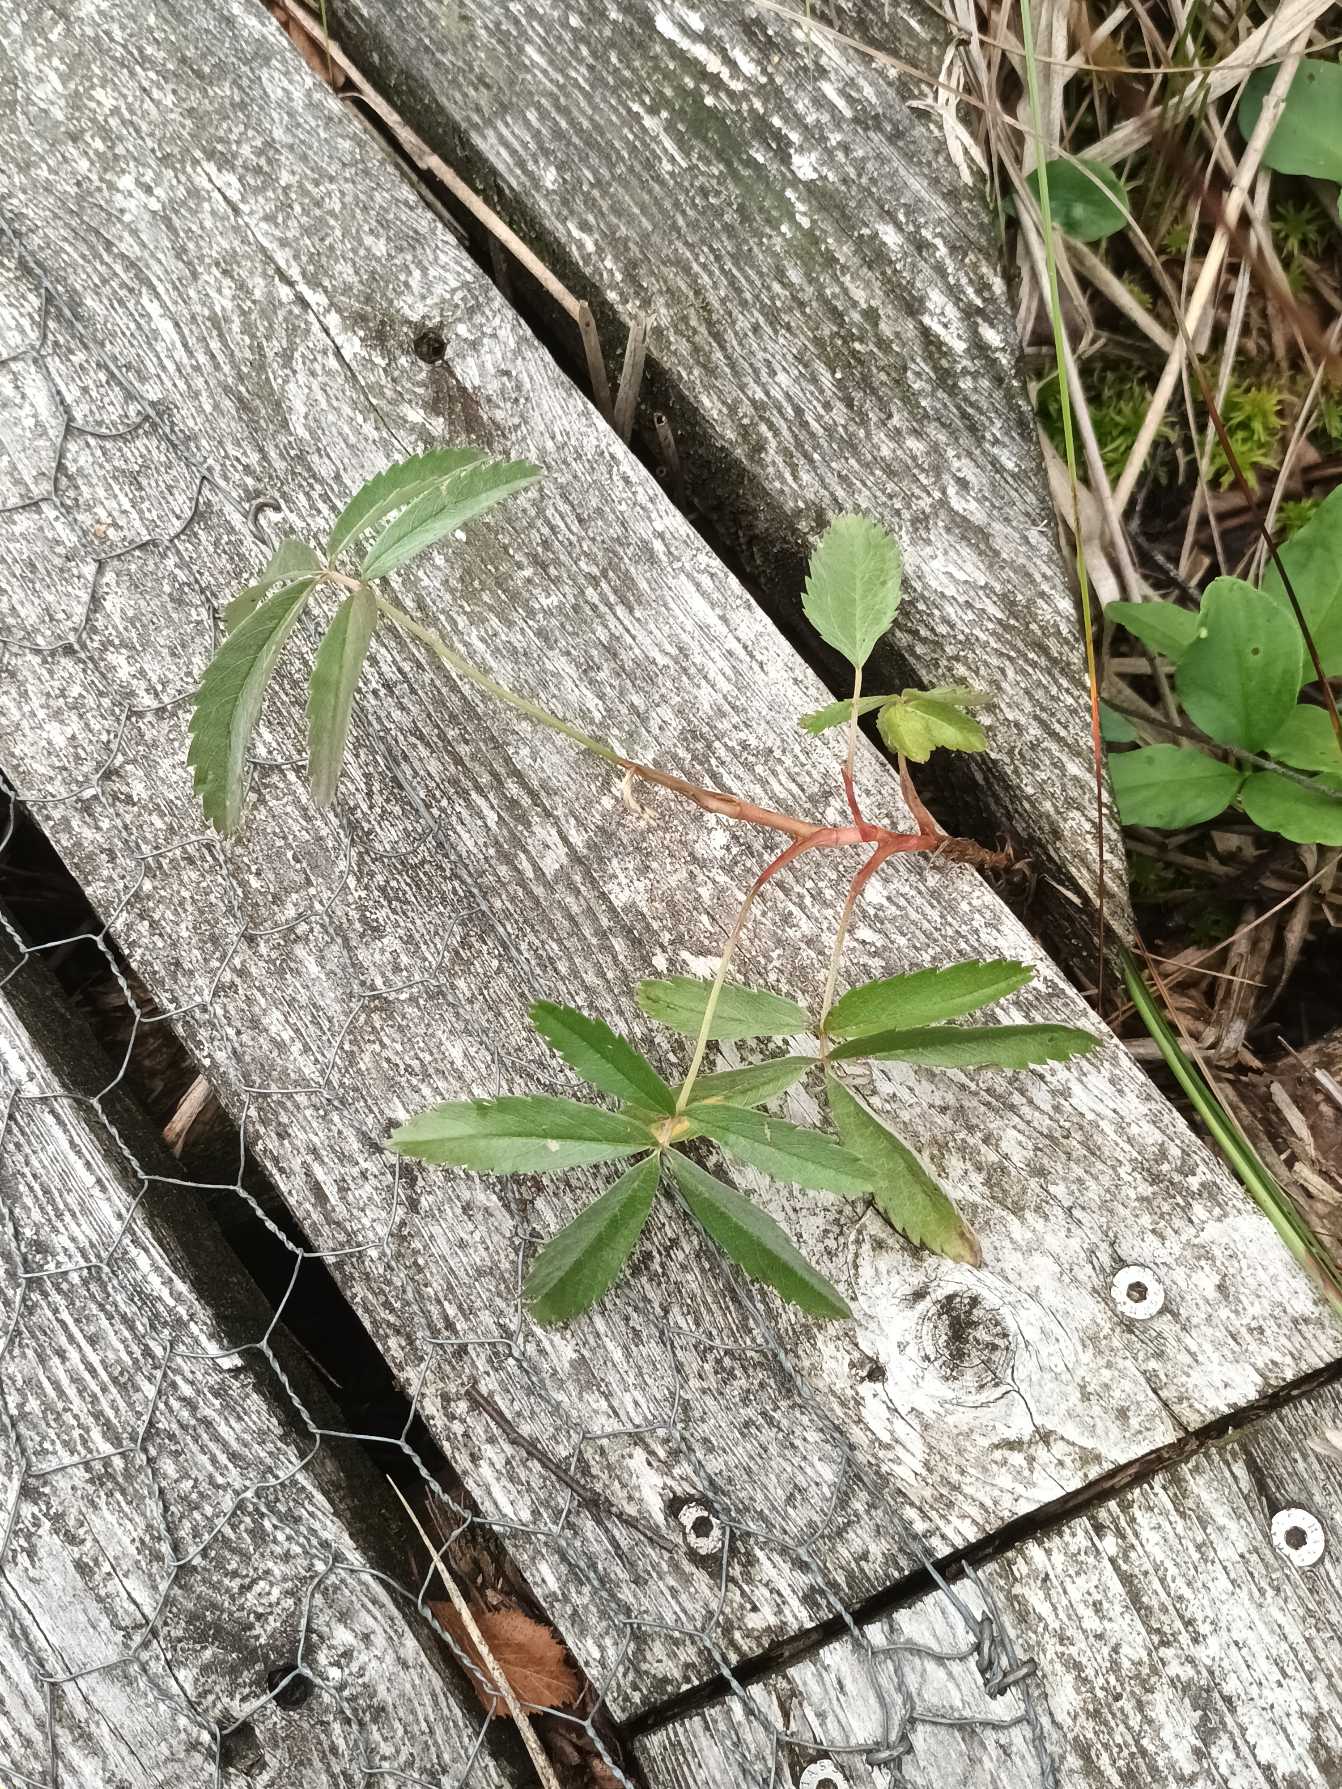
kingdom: Plantae
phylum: Tracheophyta
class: Magnoliopsida
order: Rosales
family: Rosaceae
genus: Comarum
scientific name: Comarum palustre
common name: Kragefod
